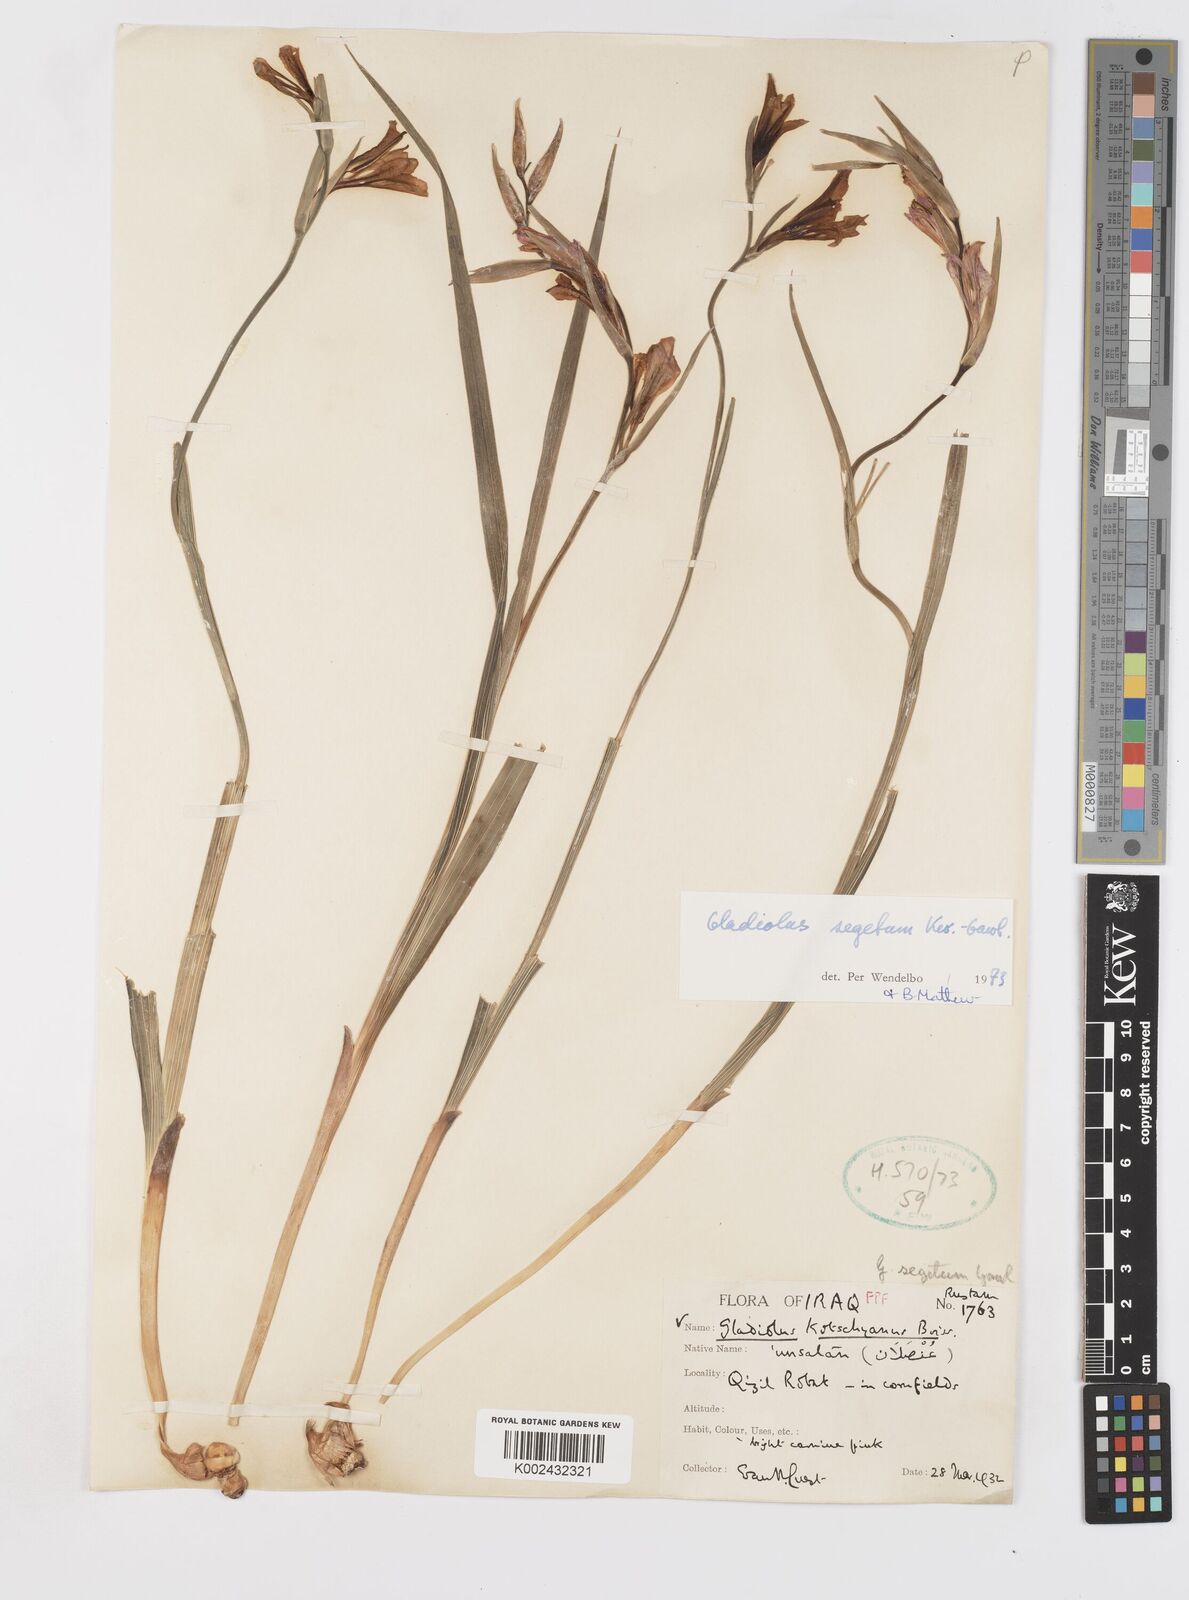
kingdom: Plantae
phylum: Tracheophyta
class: Liliopsida
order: Asparagales
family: Iridaceae
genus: Gladiolus
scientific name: Gladiolus italicus
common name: Field gladiolus
